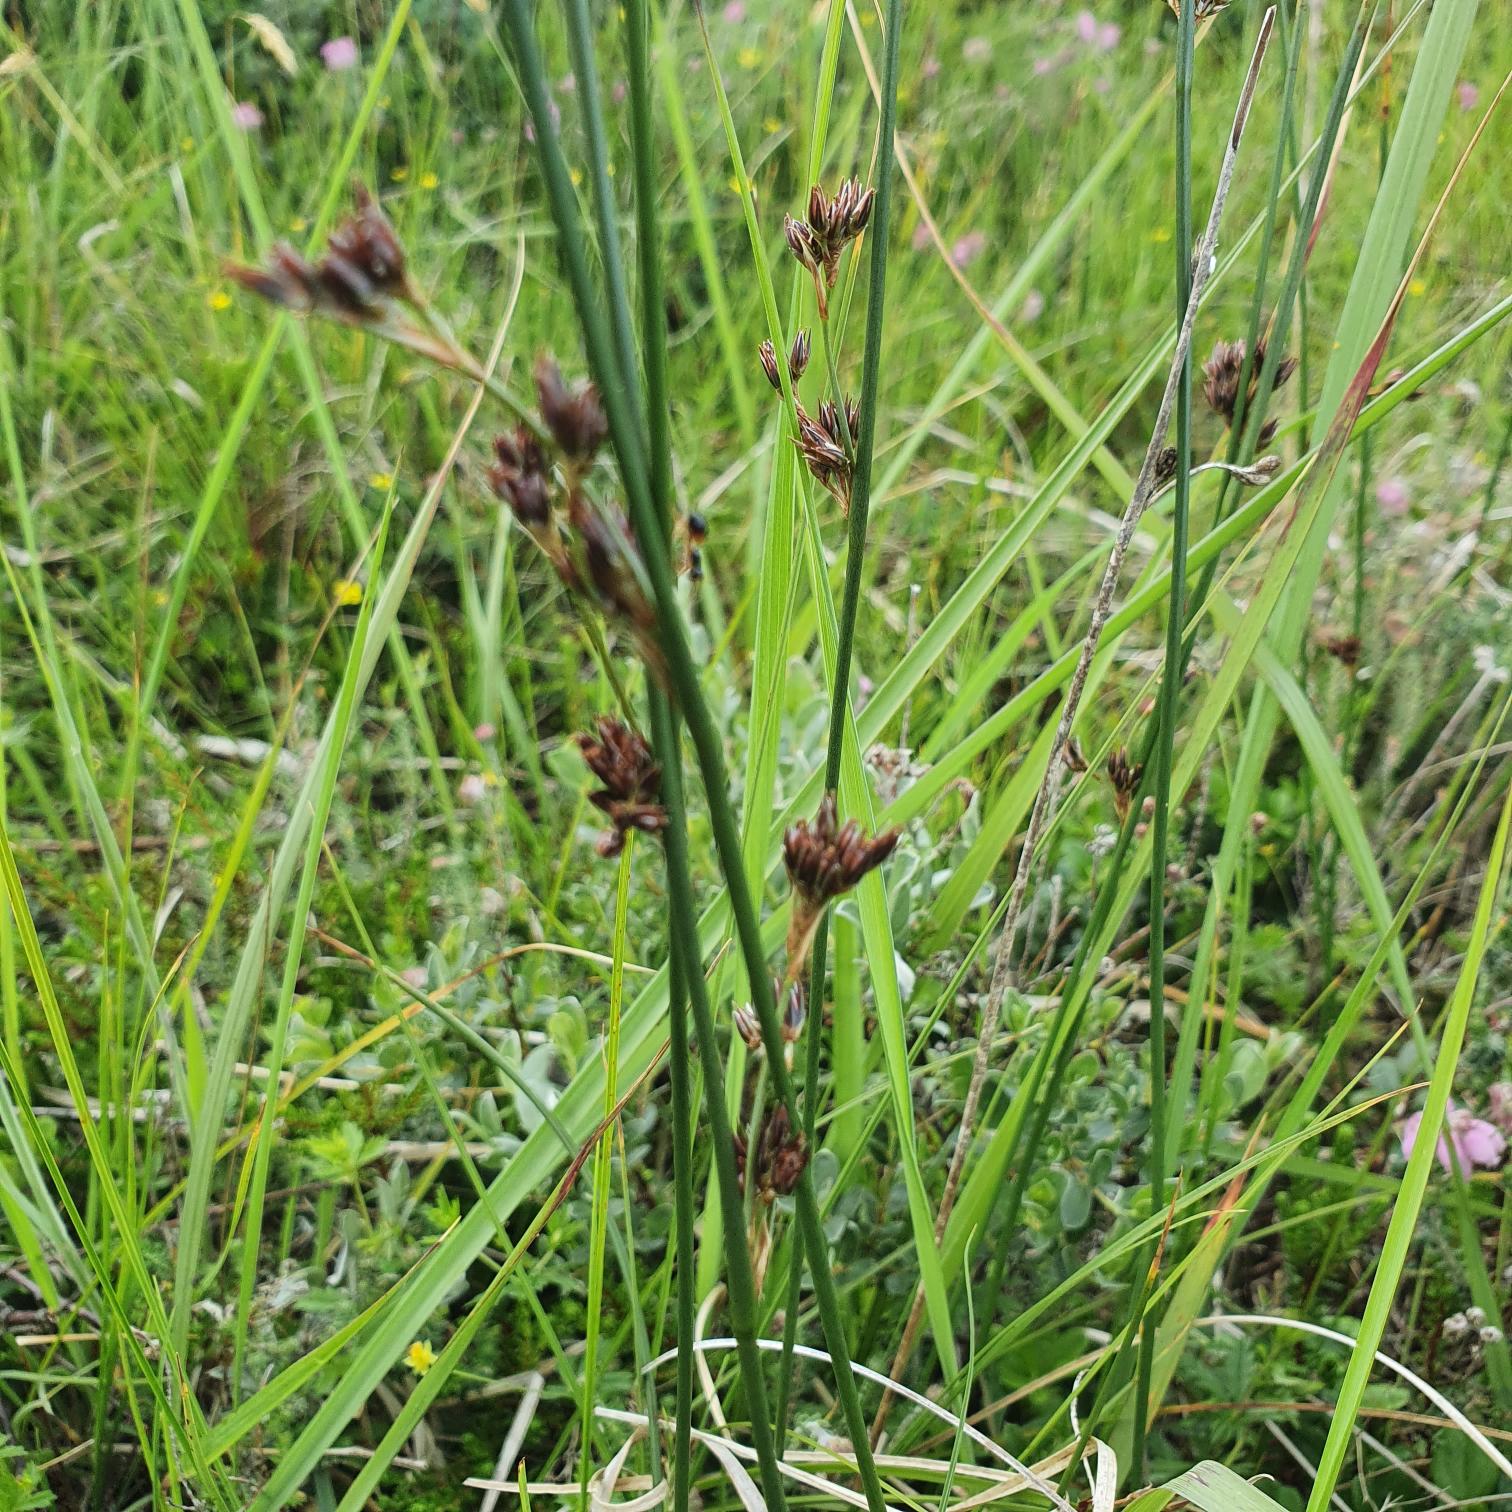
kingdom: Plantae
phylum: Tracheophyta
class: Liliopsida
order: Poales
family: Juncaceae
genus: Juncus
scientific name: Juncus balticus
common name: Klit-siv
